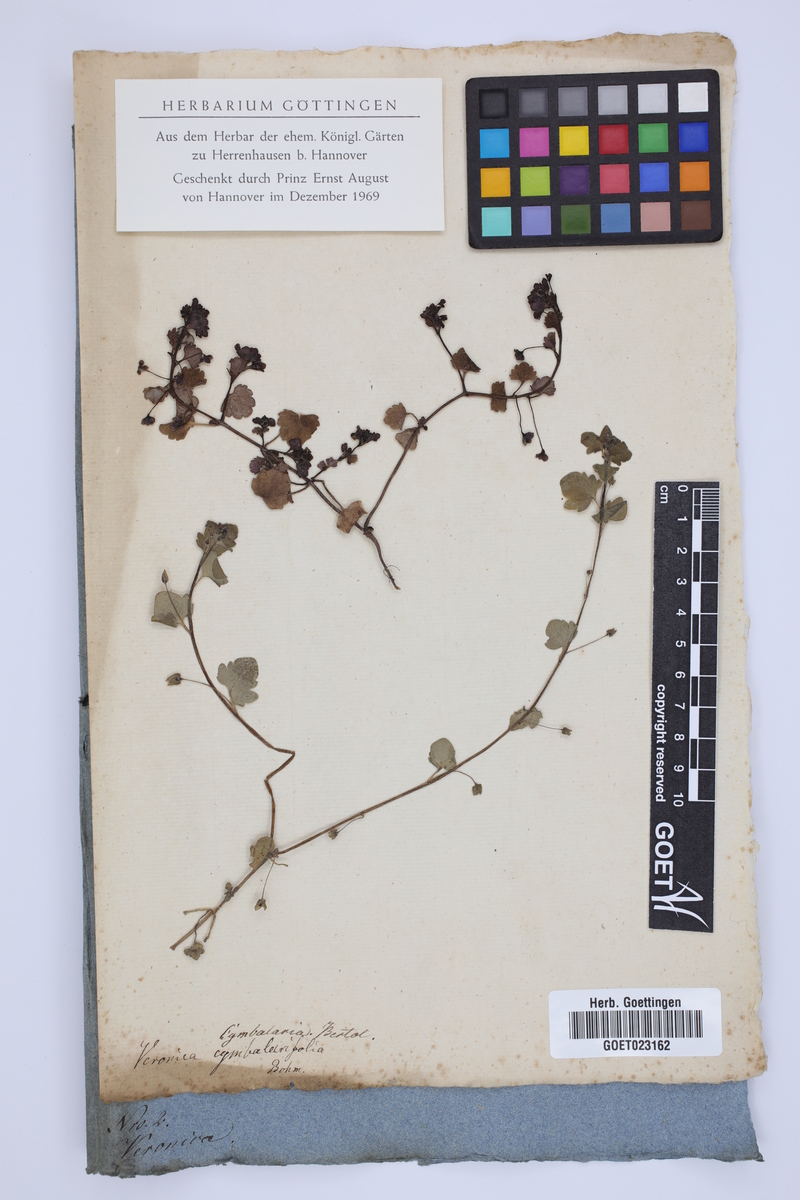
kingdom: Plantae
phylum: Tracheophyta
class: Magnoliopsida
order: Lamiales
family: Plantaginaceae
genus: Veronica
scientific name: Veronica cymbalaria
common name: Pale speedwell
